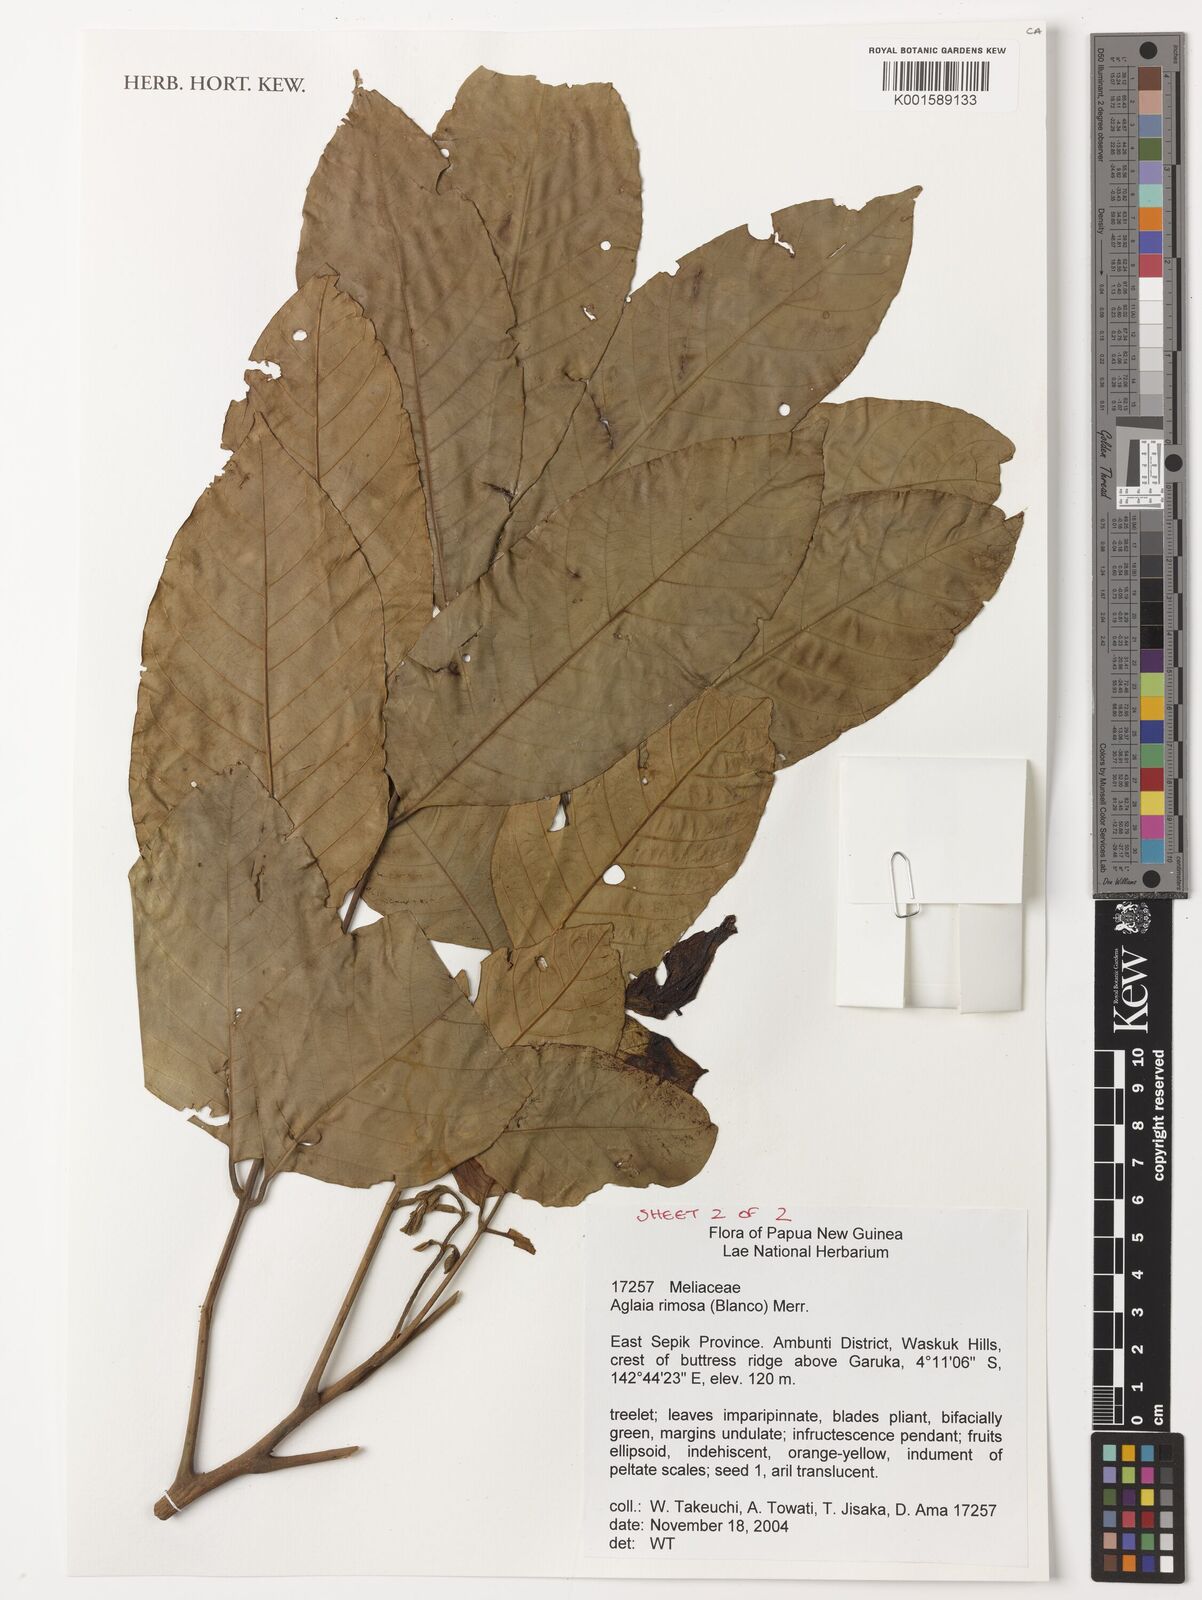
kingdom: Plantae
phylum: Tracheophyta
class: Magnoliopsida
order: Sapindales
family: Meliaceae
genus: Aglaia
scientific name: Aglaia rimosa
